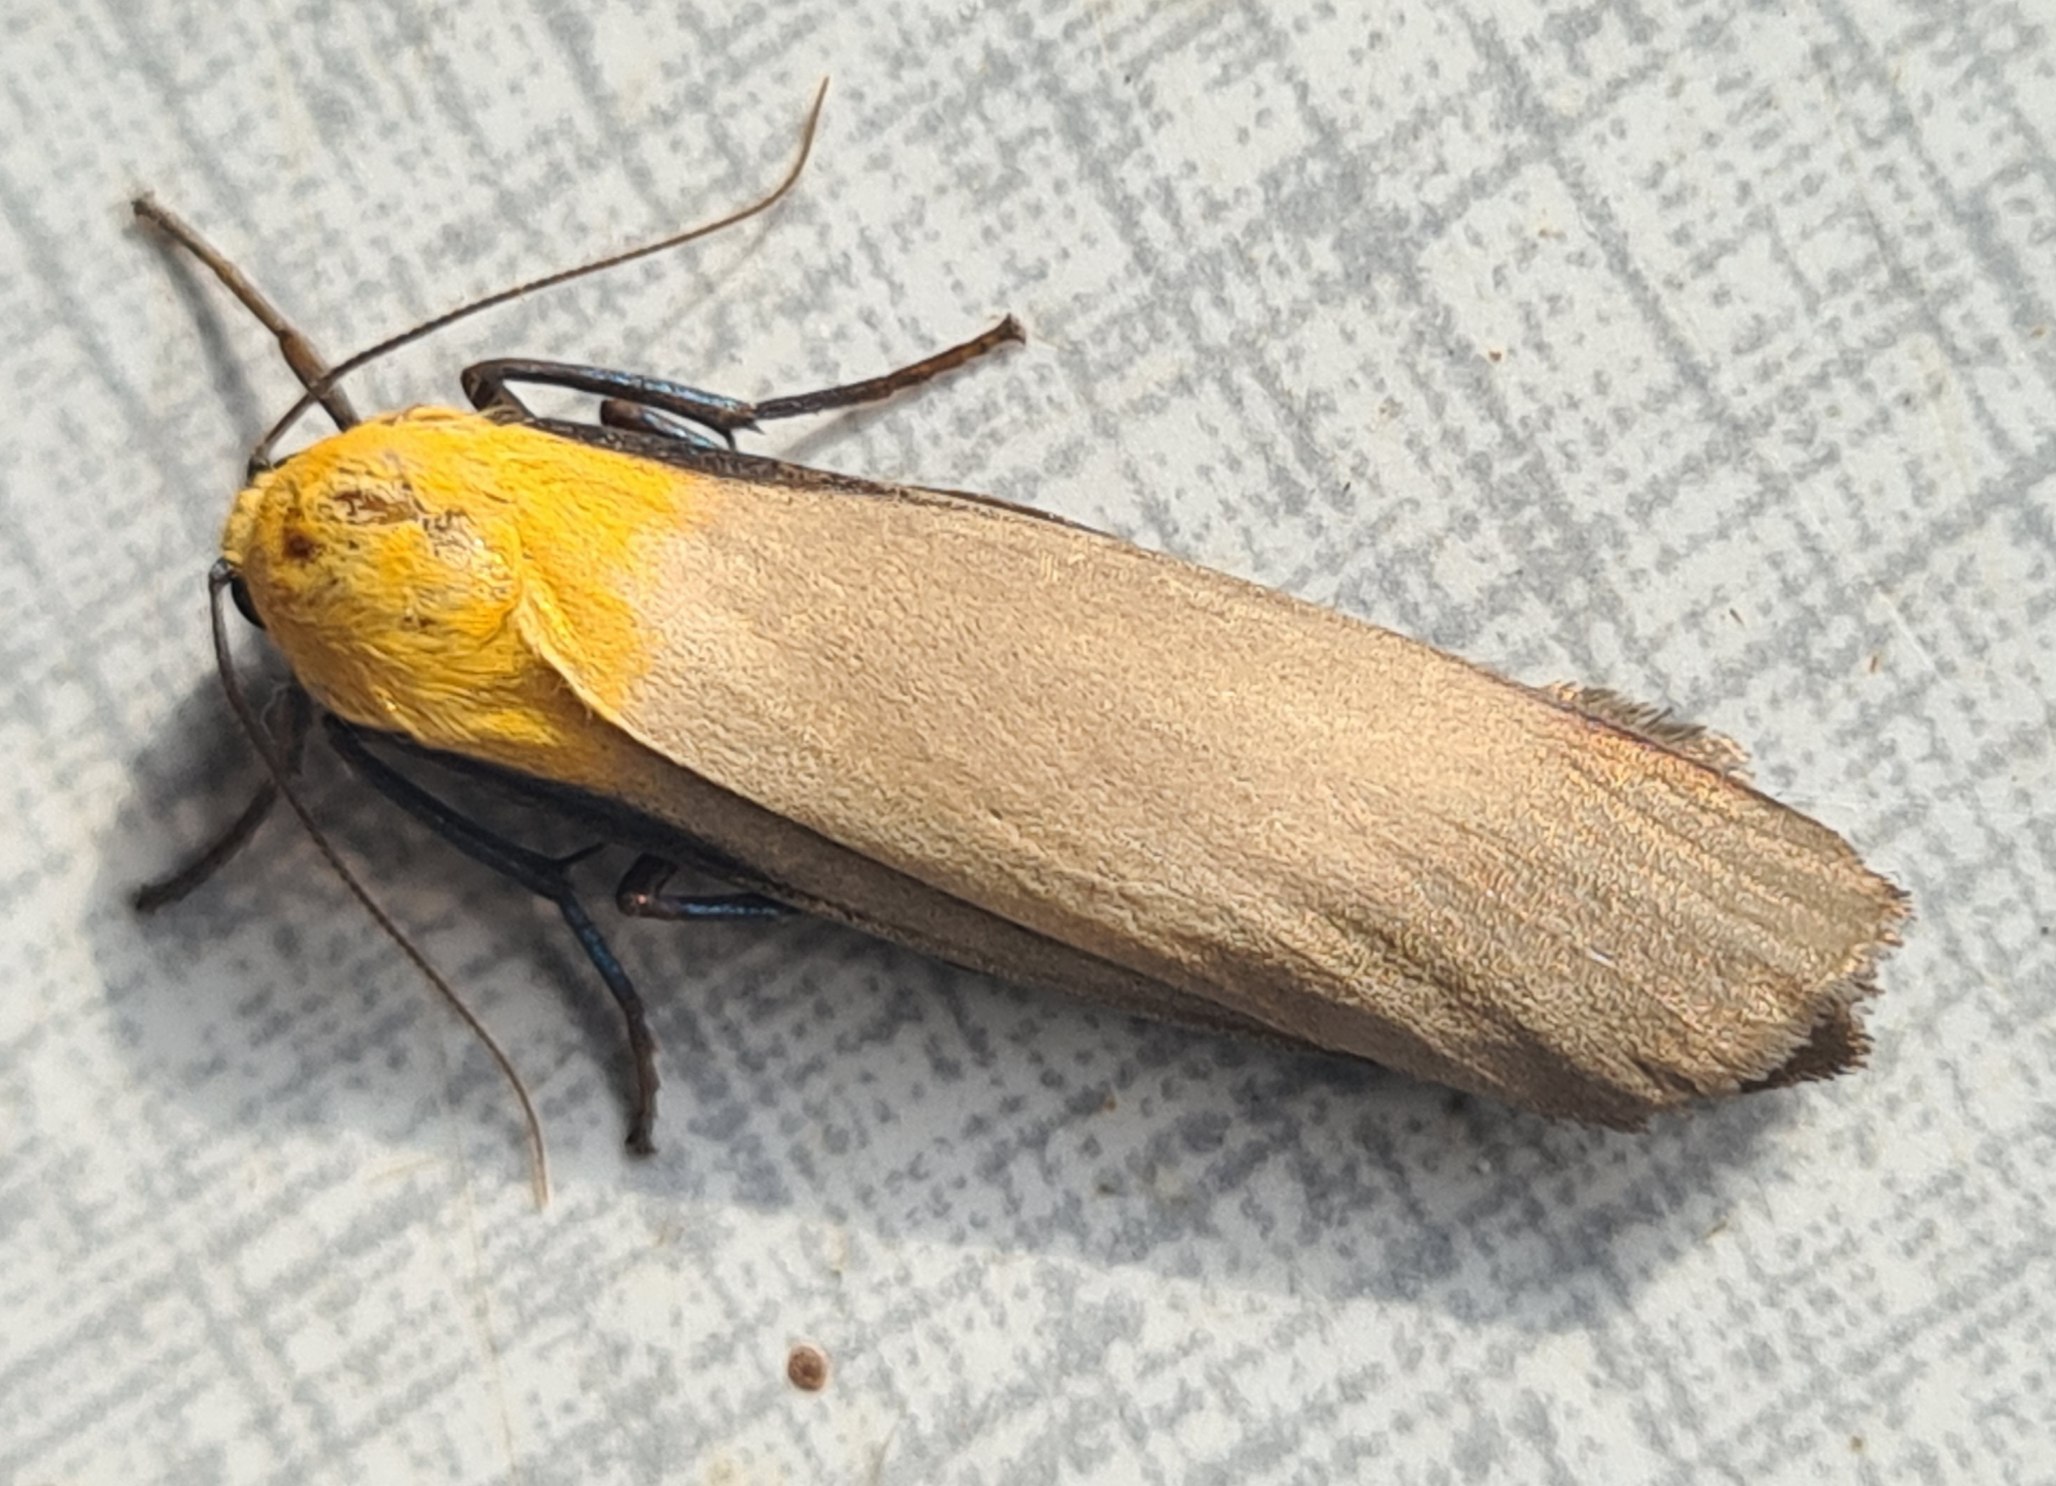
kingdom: Animalia
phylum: Arthropoda
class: Insecta
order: Lepidoptera
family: Erebidae
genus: Lithosia
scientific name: Lithosia quadra
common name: Stor lavspinder
